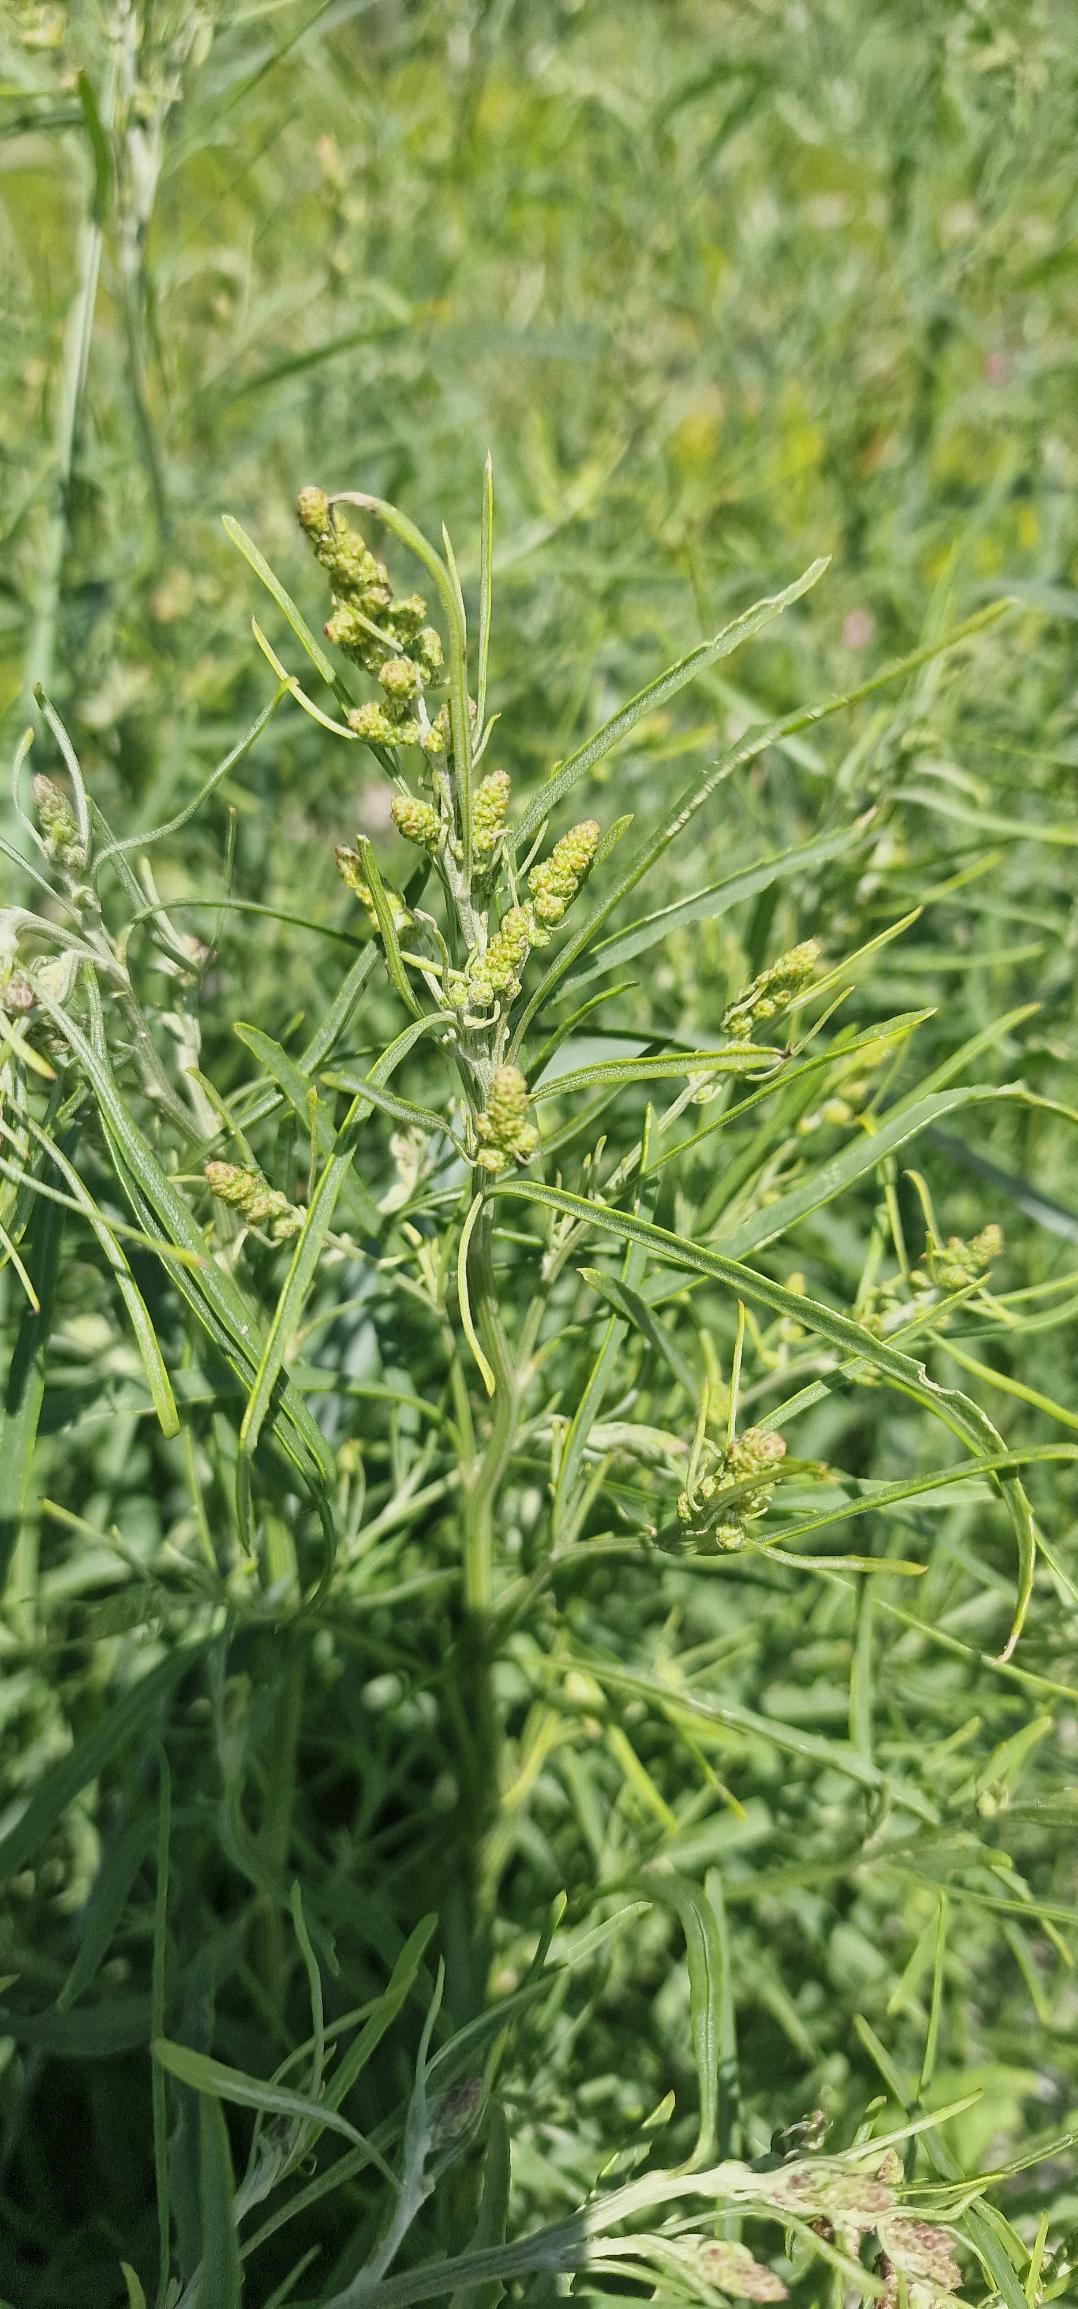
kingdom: Plantae
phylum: Tracheophyta
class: Magnoliopsida
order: Caryophyllales
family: Amaranthaceae
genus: Atriplex
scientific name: Atriplex littoralis
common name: Strand-mælde
